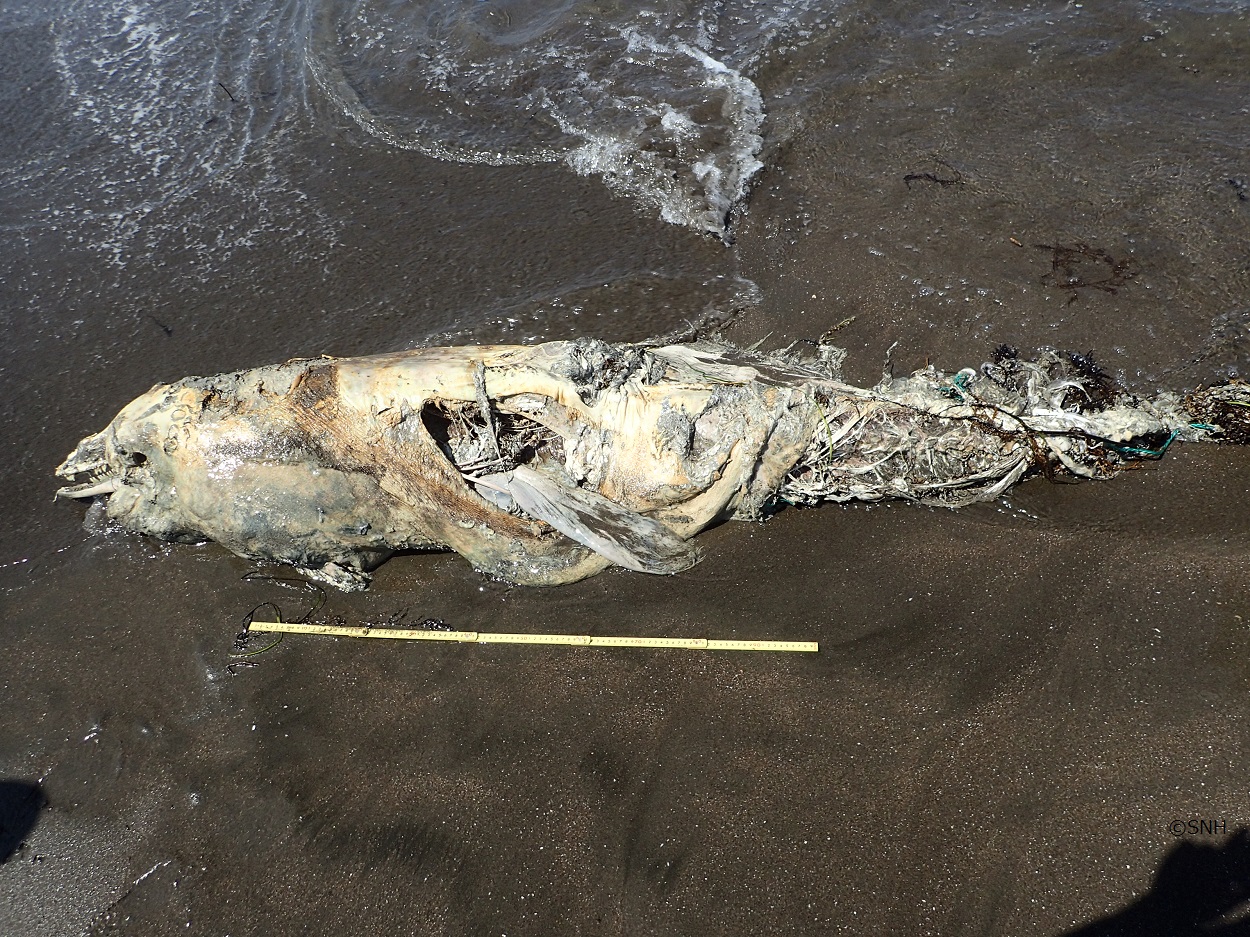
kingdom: Animalia
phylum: Chordata
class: Mammalia
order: Cetacea
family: Delphinidae
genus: Lagenorhynchus
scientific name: Lagenorhynchus obliquidens
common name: Pacific white-sided dolphin
